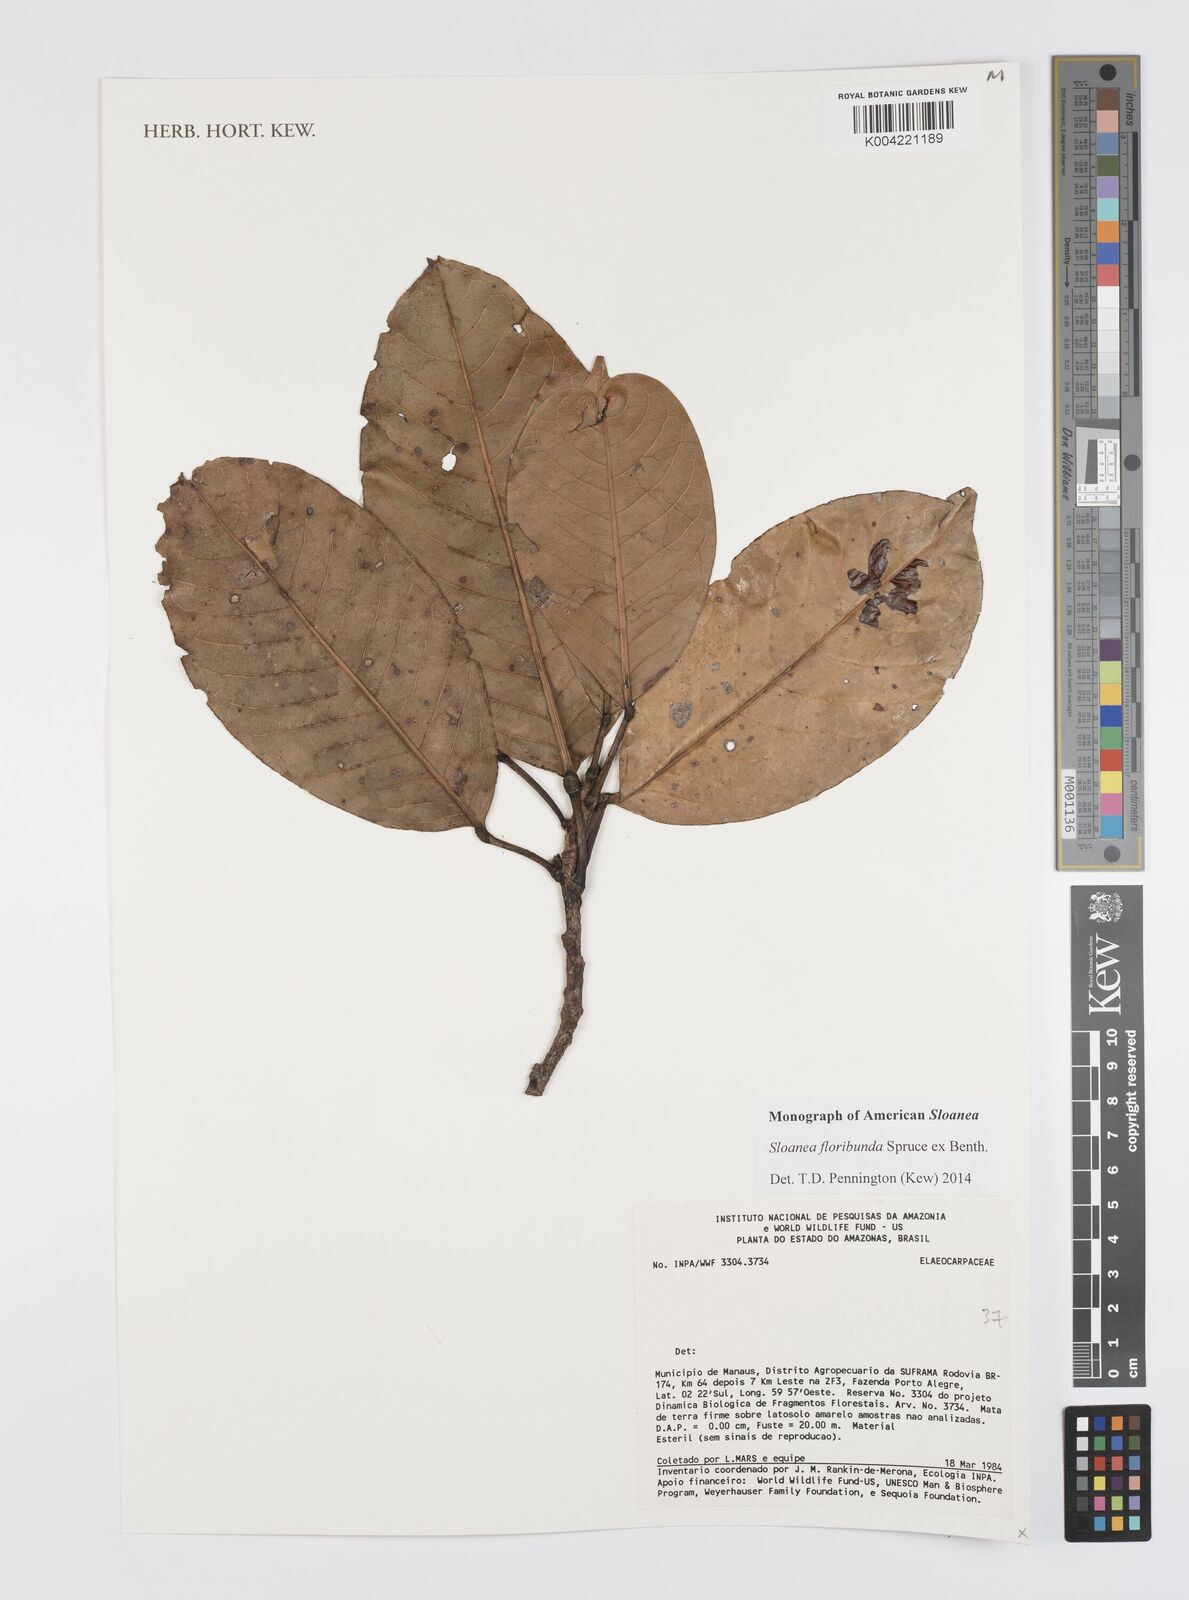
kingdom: Plantae
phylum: Tracheophyta
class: Magnoliopsida
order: Oxalidales
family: Elaeocarpaceae
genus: Sloanea
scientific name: Sloanea floribunda
